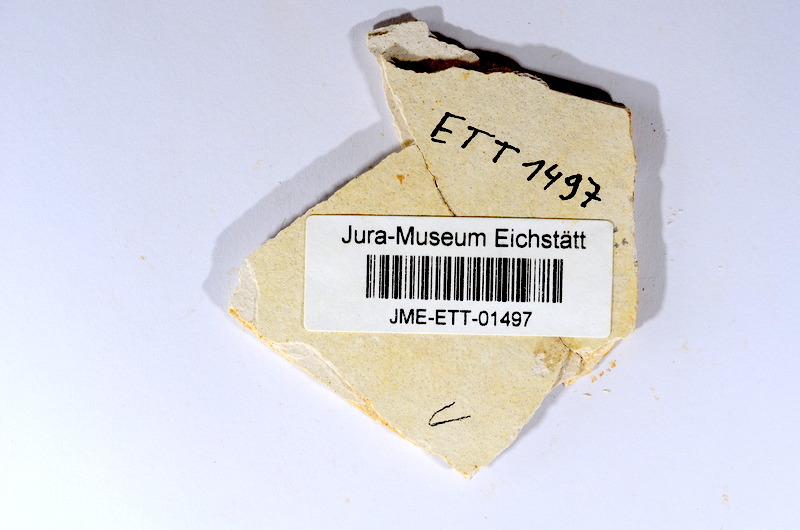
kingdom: Animalia
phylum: Chordata
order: Salmoniformes
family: Orthogonikleithridae
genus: Orthogonikleithrus
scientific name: Orthogonikleithrus hoelli
